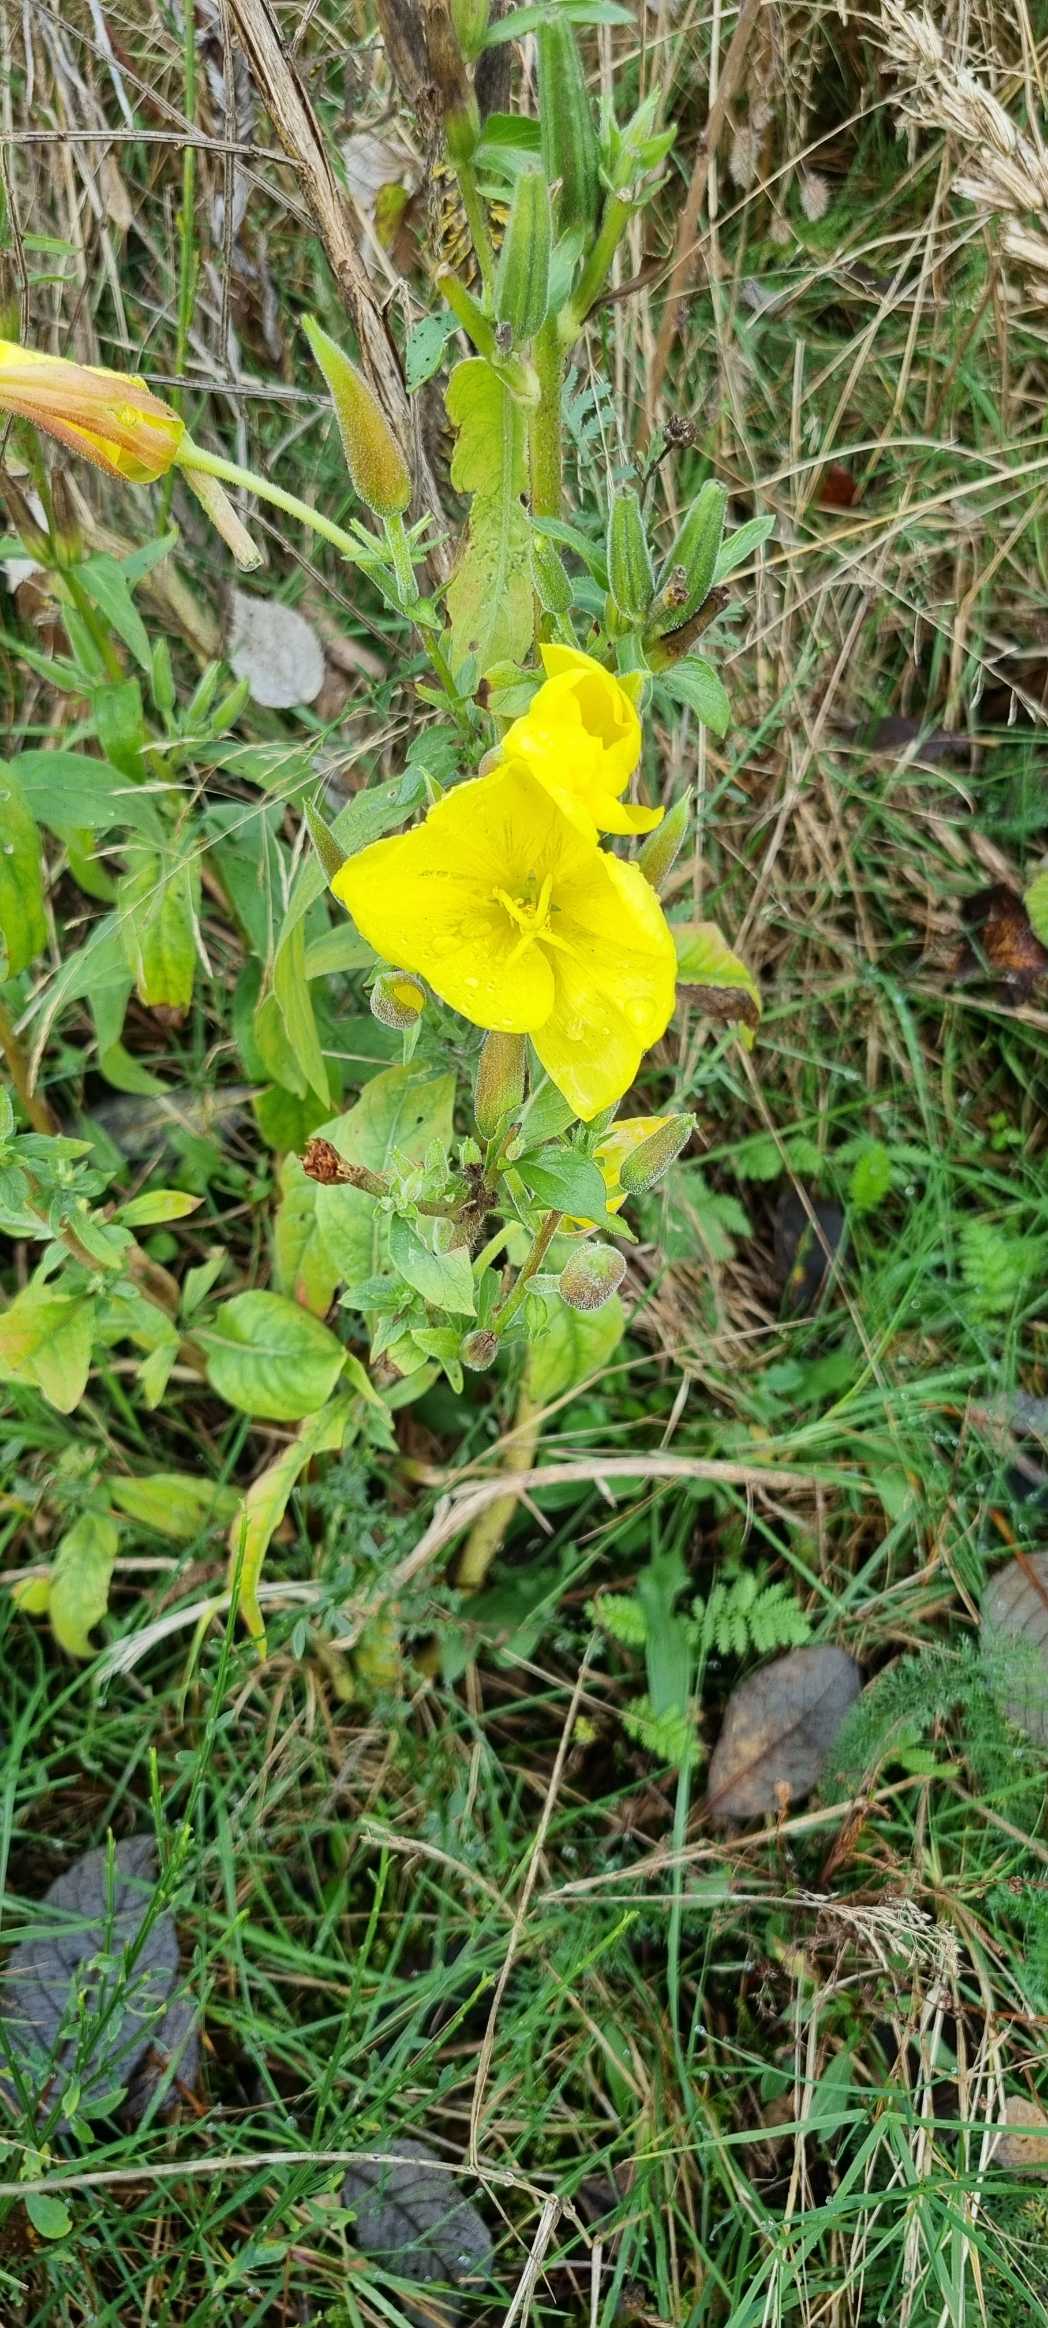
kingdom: Plantae
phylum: Tracheophyta
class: Magnoliopsida
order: Myrtales
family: Onagraceae
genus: Oenothera
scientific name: Oenothera
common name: Natlysslægten
